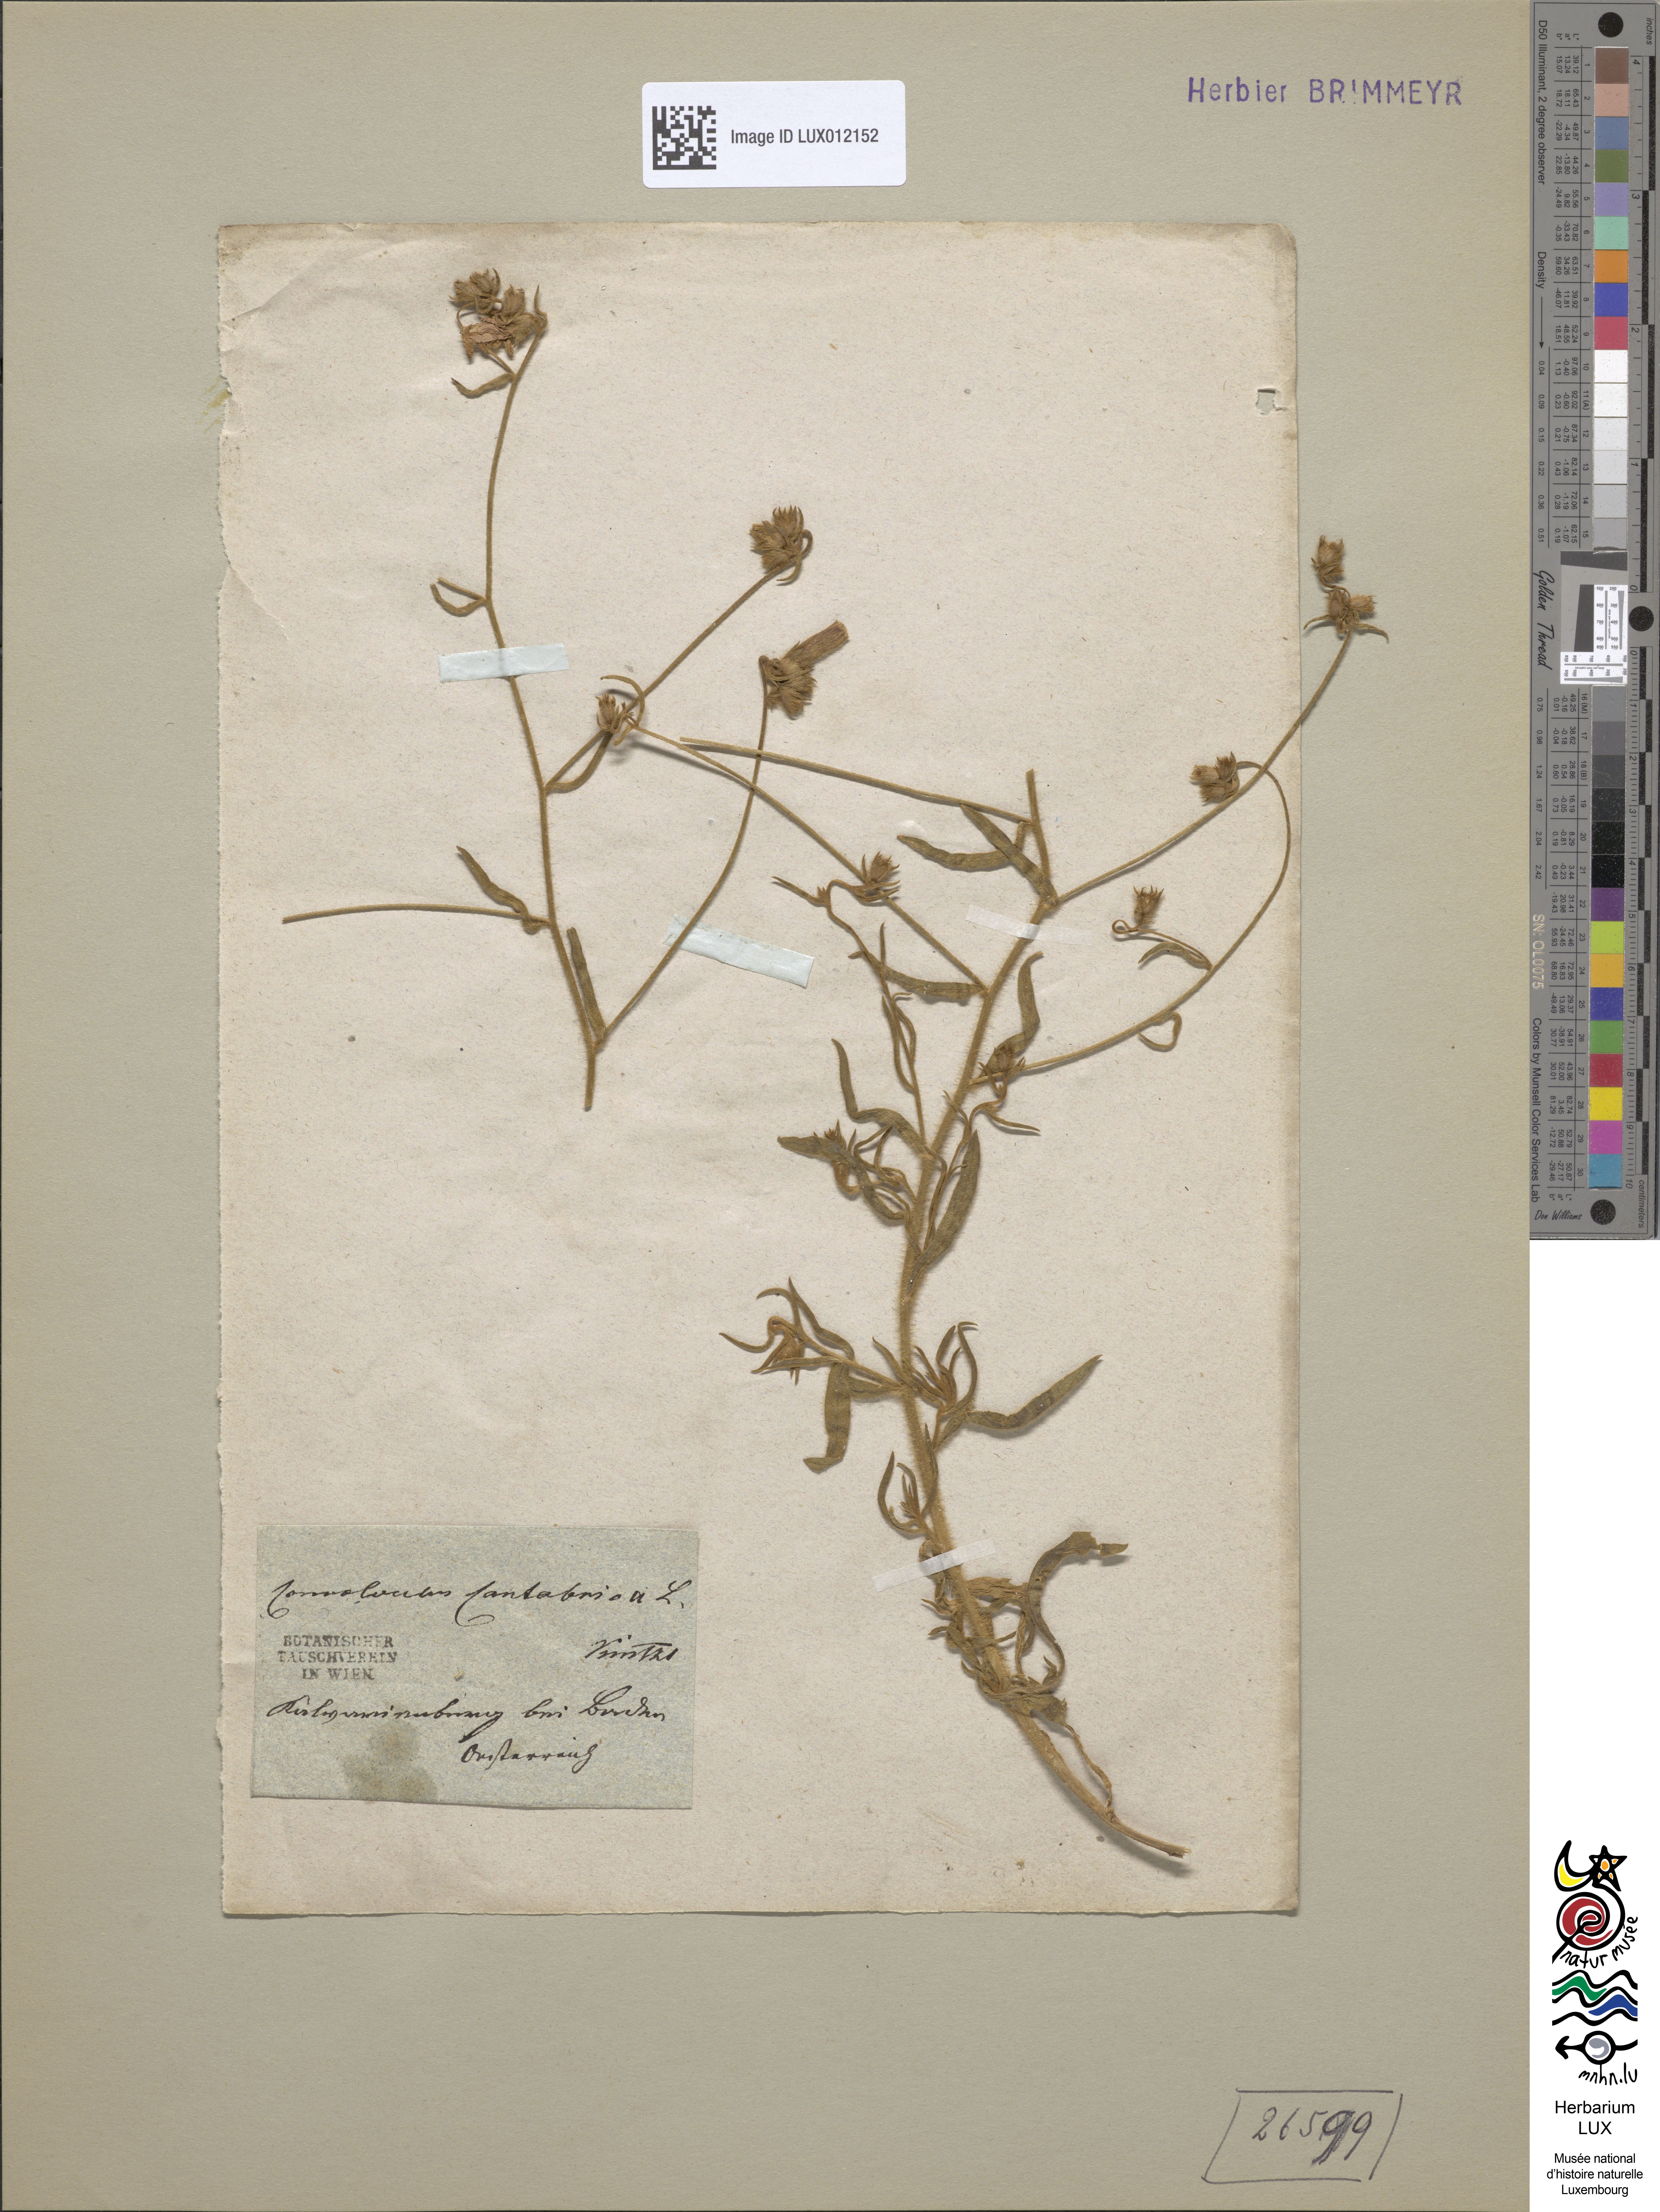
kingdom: Plantae
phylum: Tracheophyta
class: Magnoliopsida
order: Solanales
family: Convolvulaceae
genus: Convolvulus
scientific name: Convolvulus cantabrica
